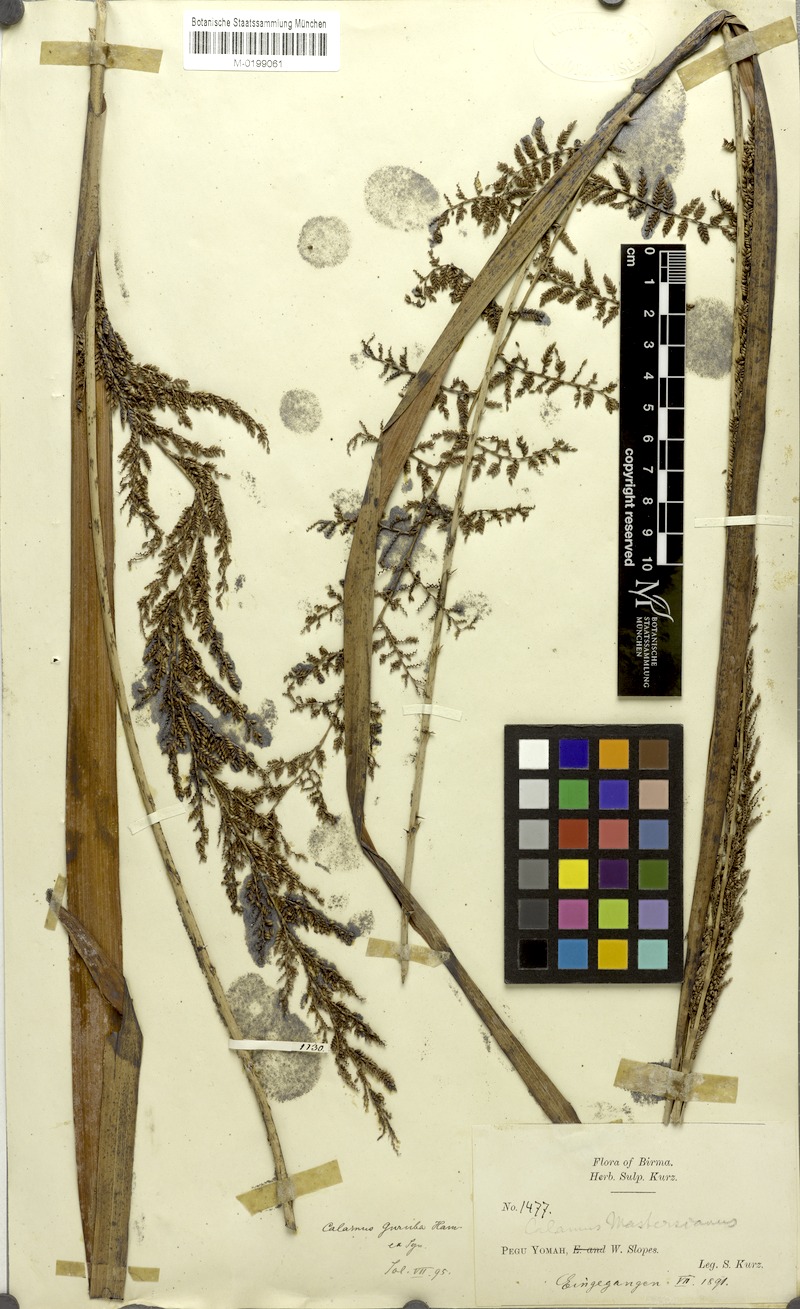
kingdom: Plantae
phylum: Tracheophyta
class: Liliopsida
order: Arecales
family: Arecaceae
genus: Calamus
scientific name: Calamus nitidus
